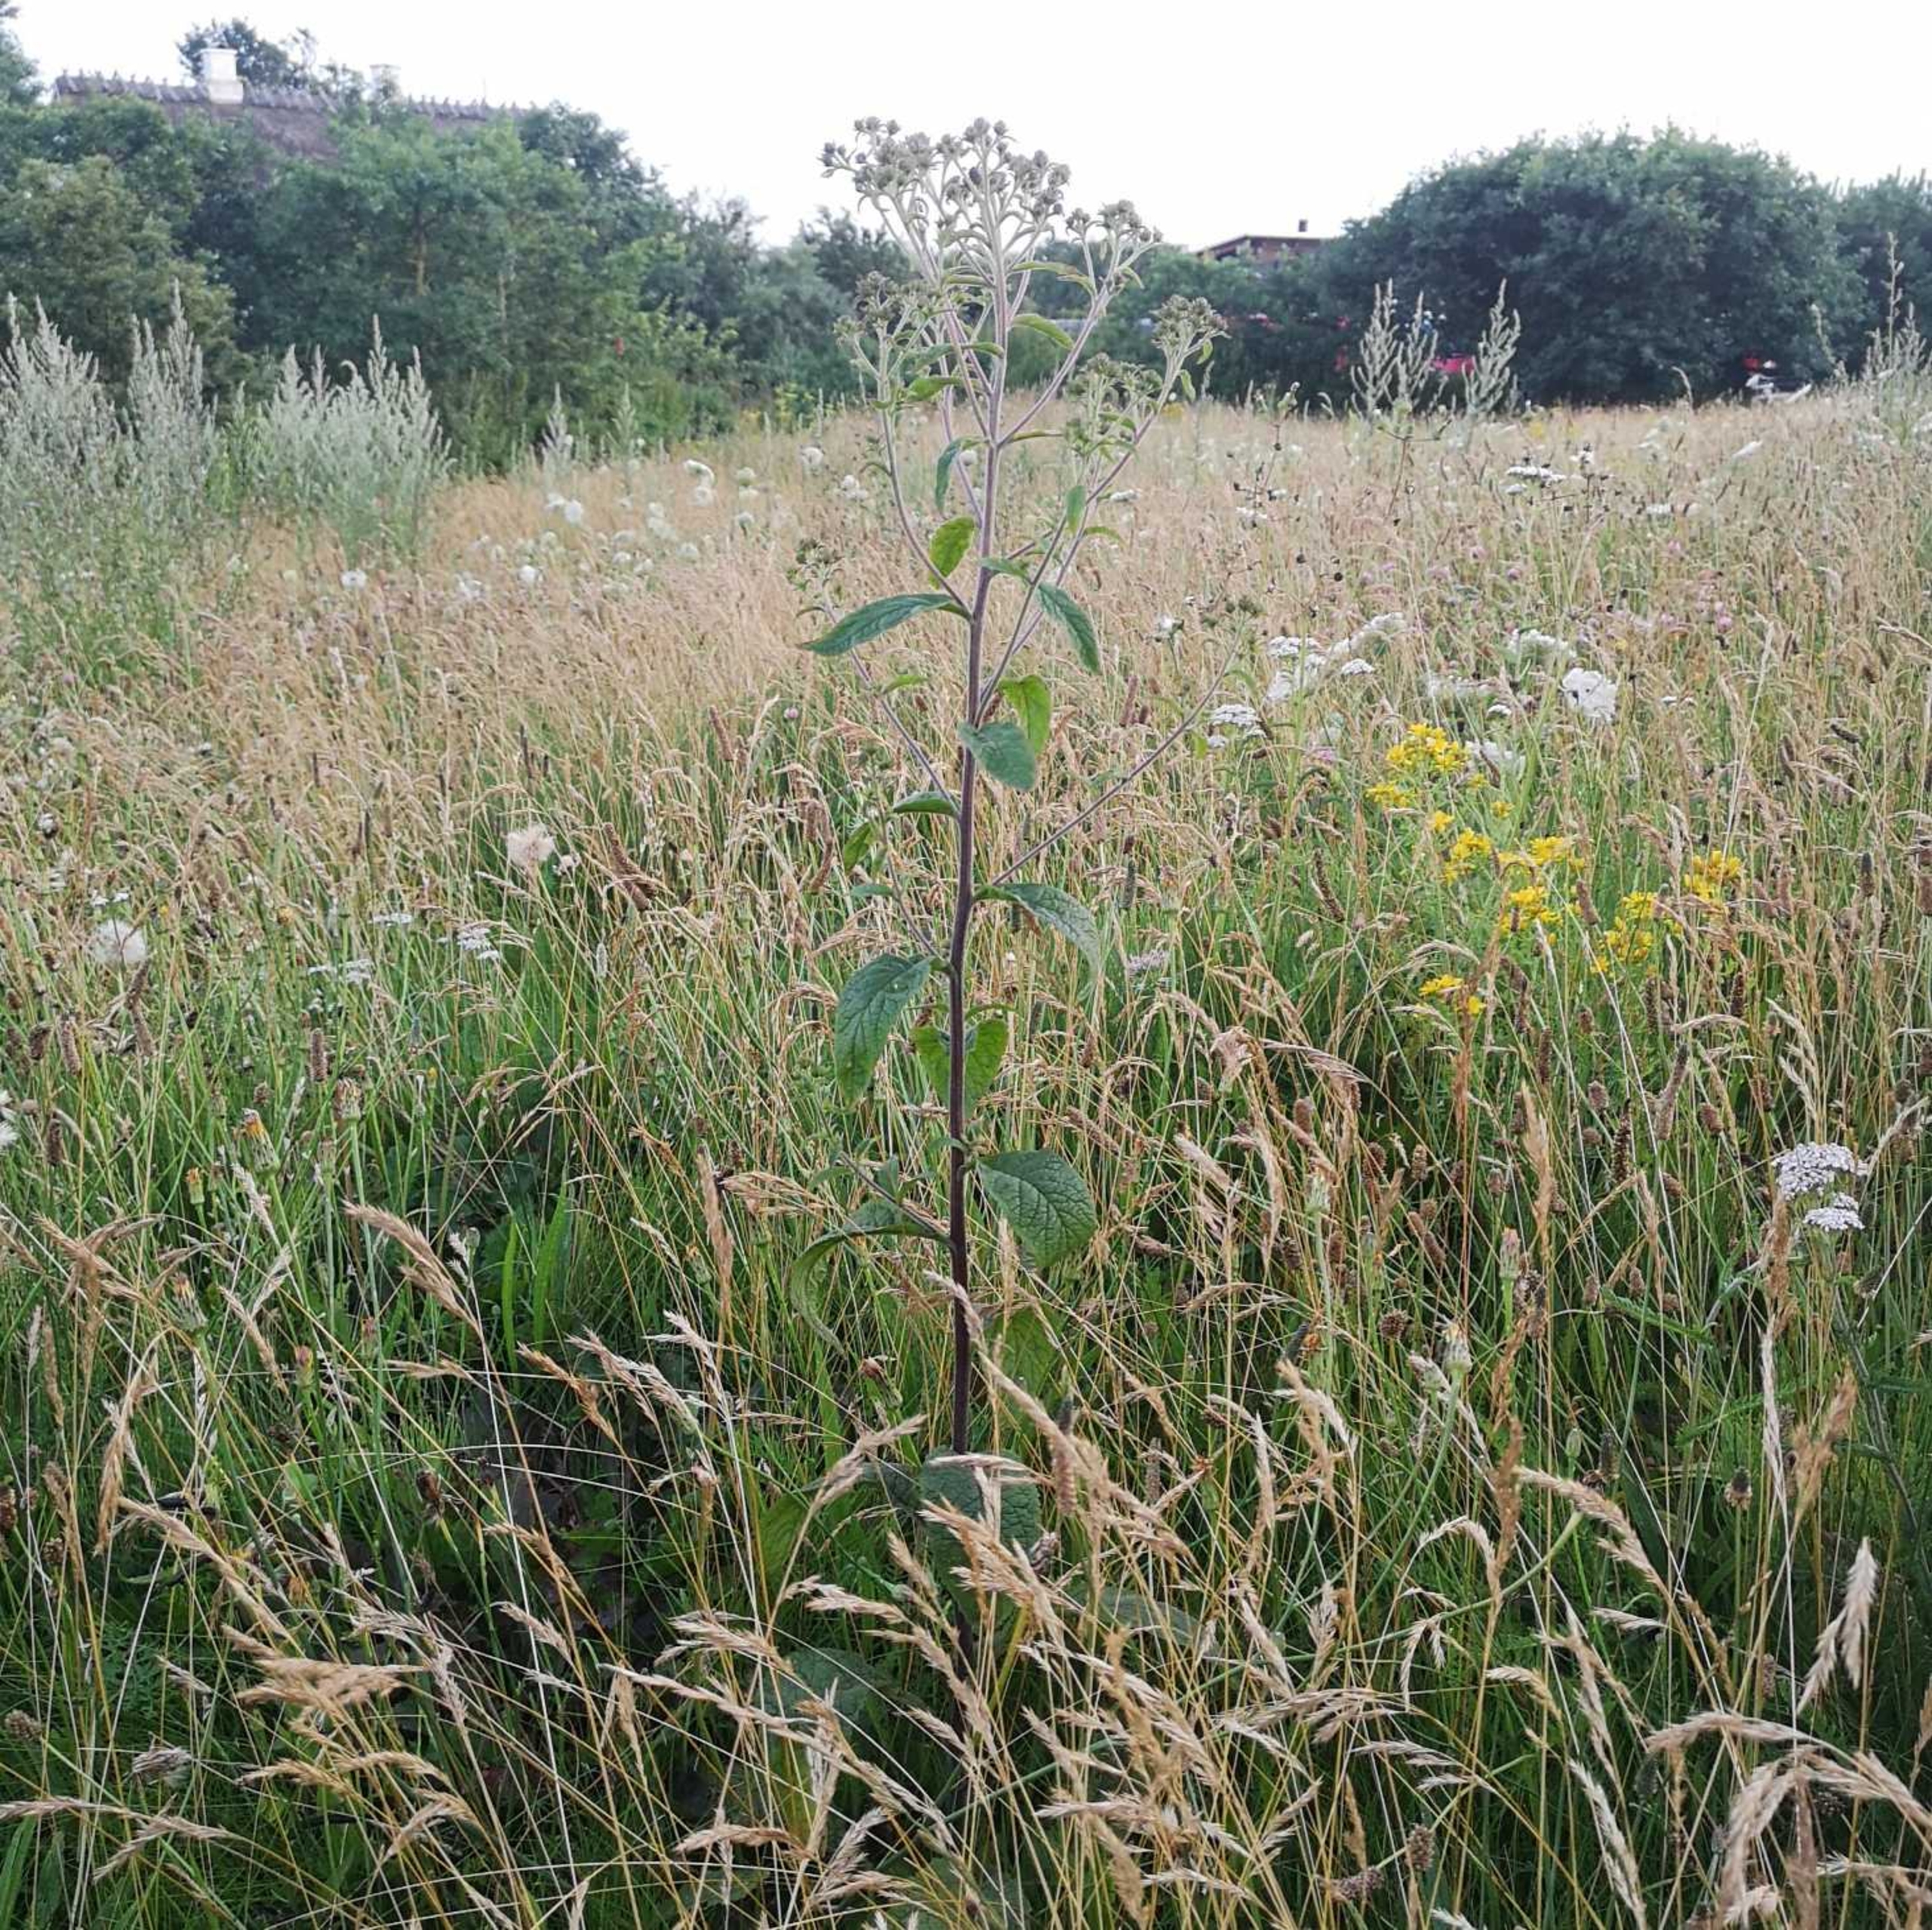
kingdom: Plantae
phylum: Tracheophyta
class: Magnoliopsida
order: Asterales
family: Asteraceae
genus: Pentanema
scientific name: Pentanema squarrosum
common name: Trekløft-alant
